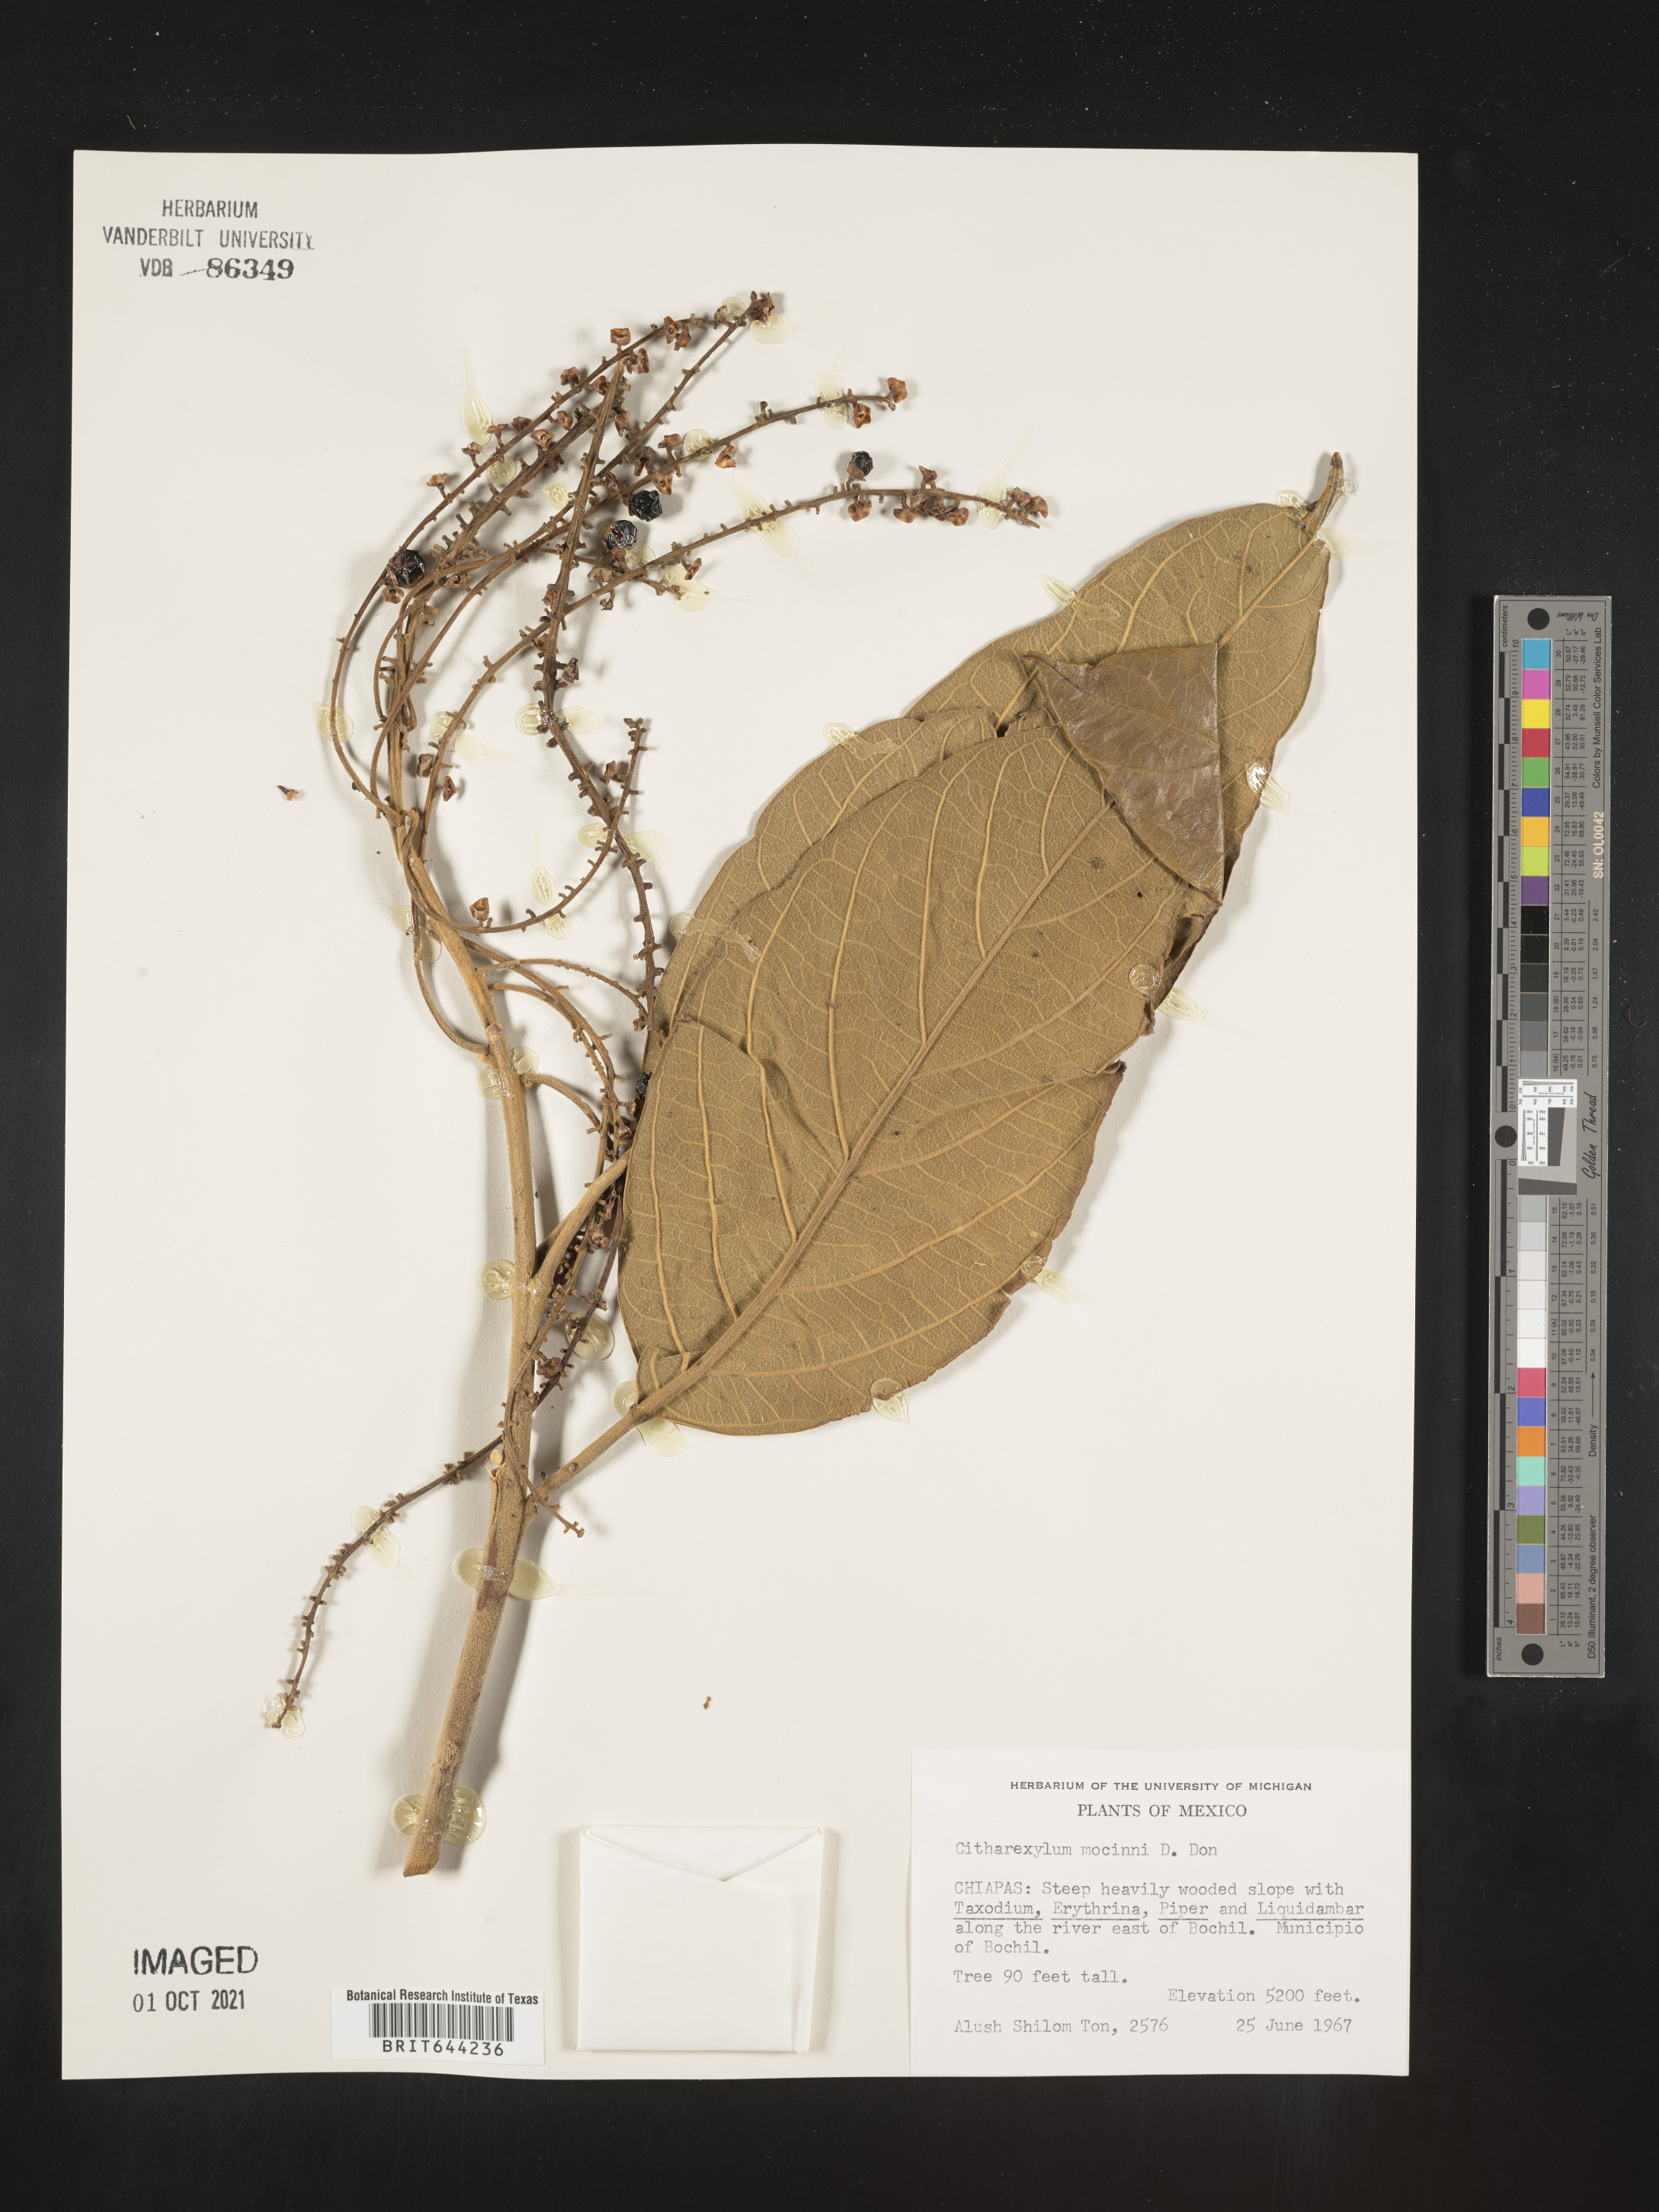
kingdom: Plantae
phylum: Tracheophyta
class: Magnoliopsida
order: Lamiales
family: Verbenaceae
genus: Citharexylum
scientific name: Citharexylum
